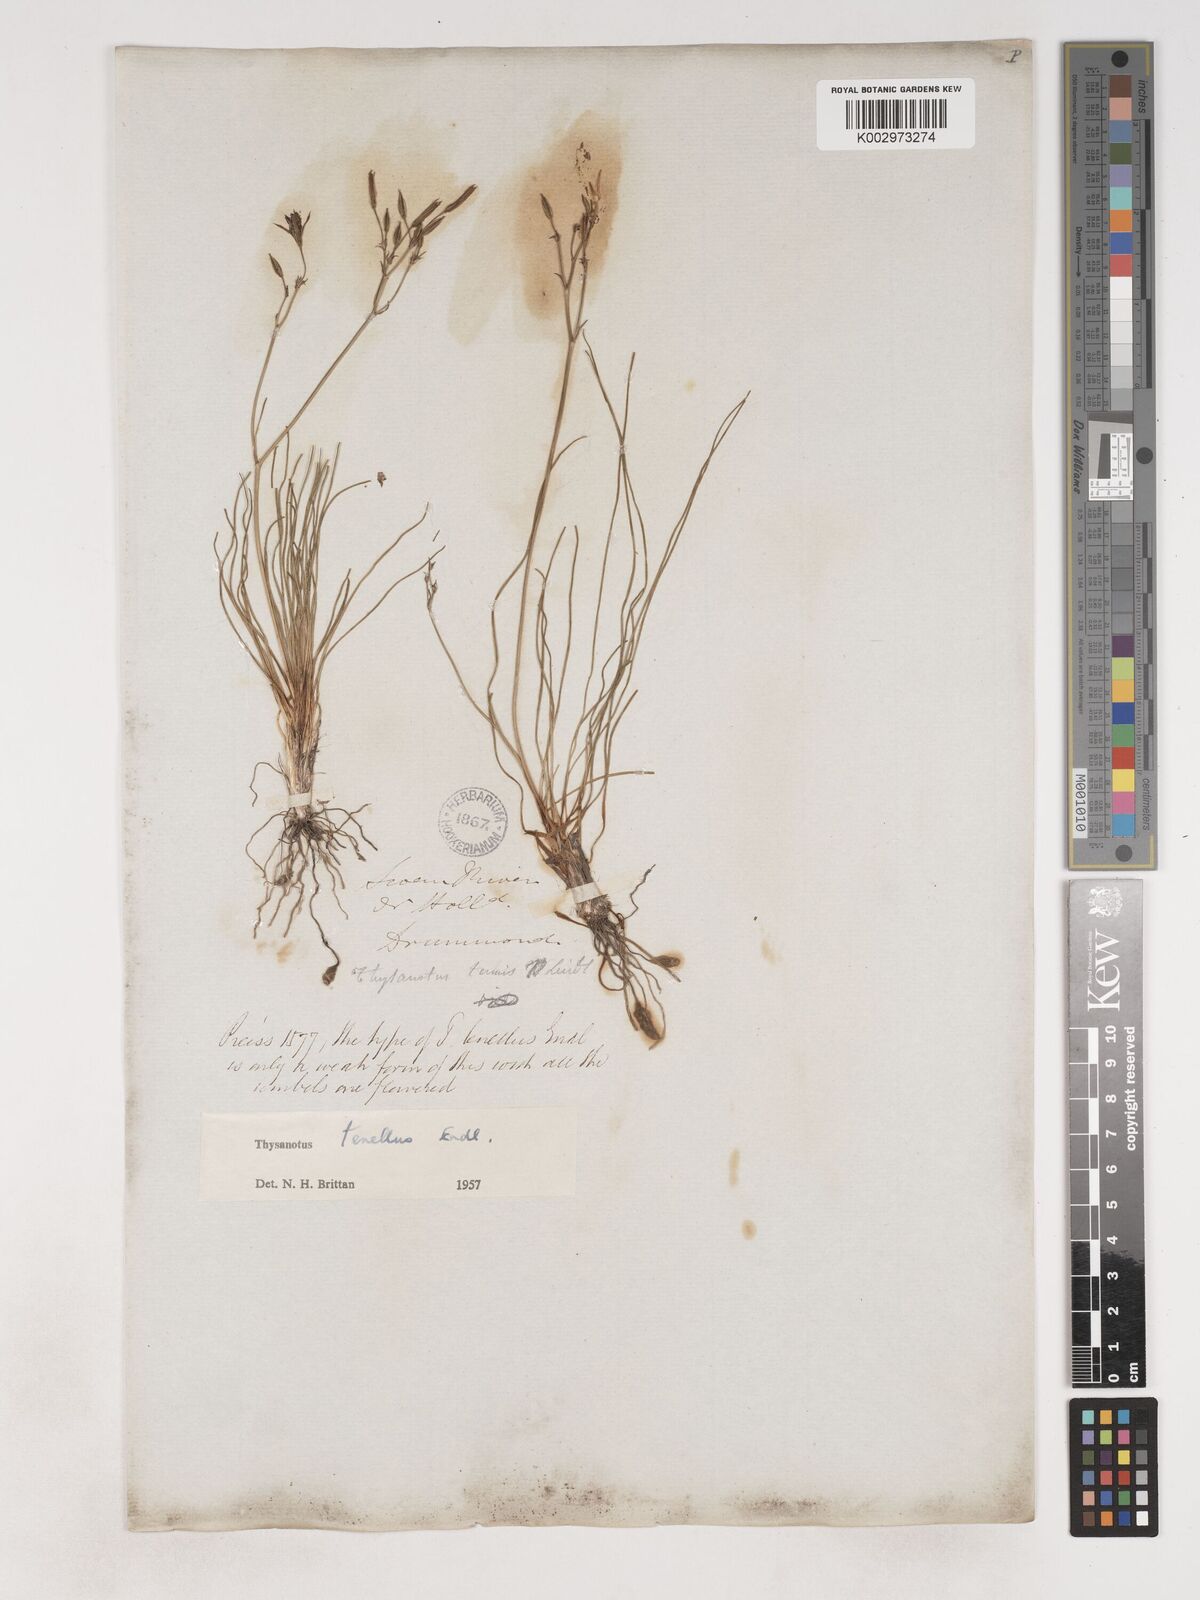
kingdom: Plantae
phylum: Tracheophyta
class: Liliopsida
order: Asparagales
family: Asparagaceae
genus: Thysanotus
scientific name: Thysanotus tenellus
